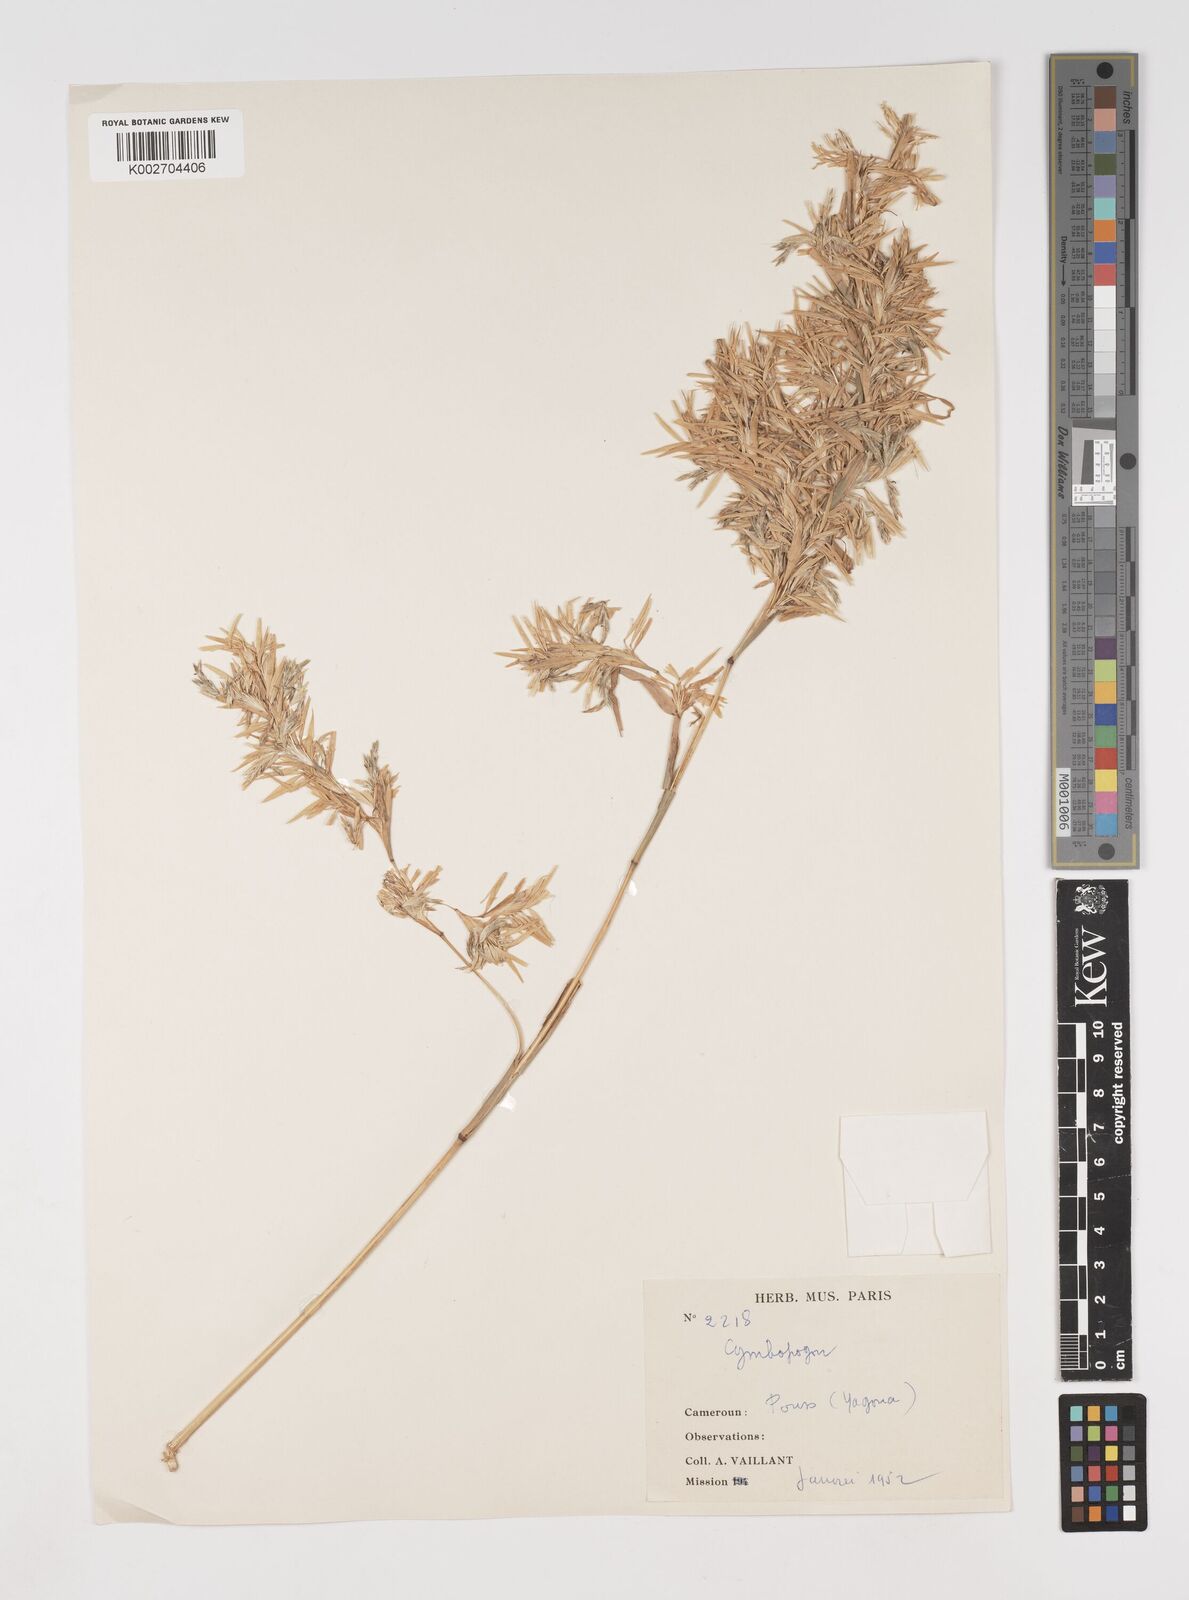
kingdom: Plantae
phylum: Tracheophyta
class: Liliopsida
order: Poales
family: Poaceae
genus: Cymbopogon
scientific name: Cymbopogon giganteus
